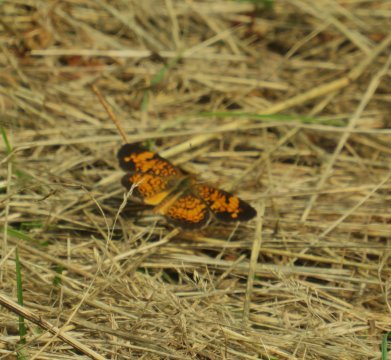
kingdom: Animalia
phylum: Arthropoda
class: Insecta
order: Lepidoptera
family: Nymphalidae
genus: Phyciodes
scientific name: Phyciodes tharos
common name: Pearl Crescent
